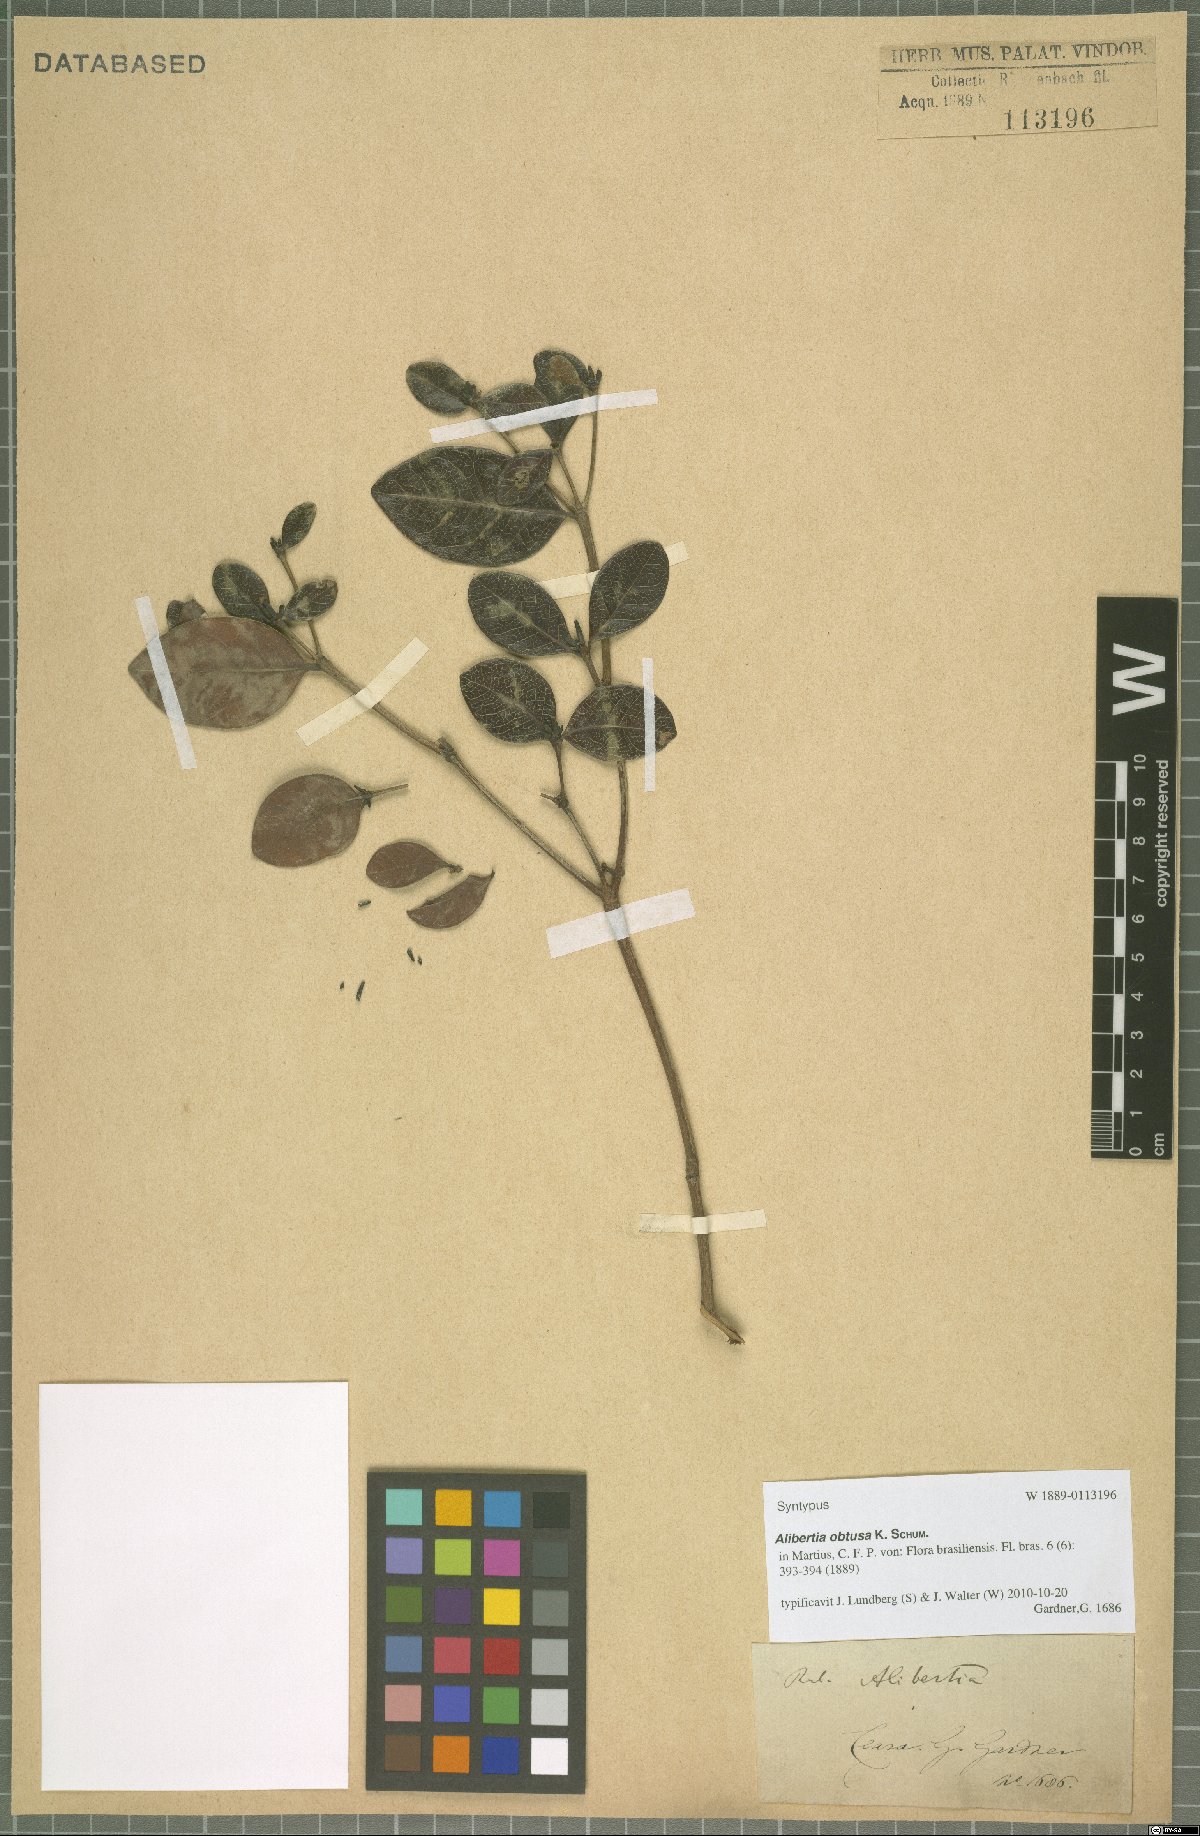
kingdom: Plantae
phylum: Tracheophyta
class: Magnoliopsida
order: Gentianales
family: Rubiaceae
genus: Cordiera
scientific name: Cordiera obtusa
